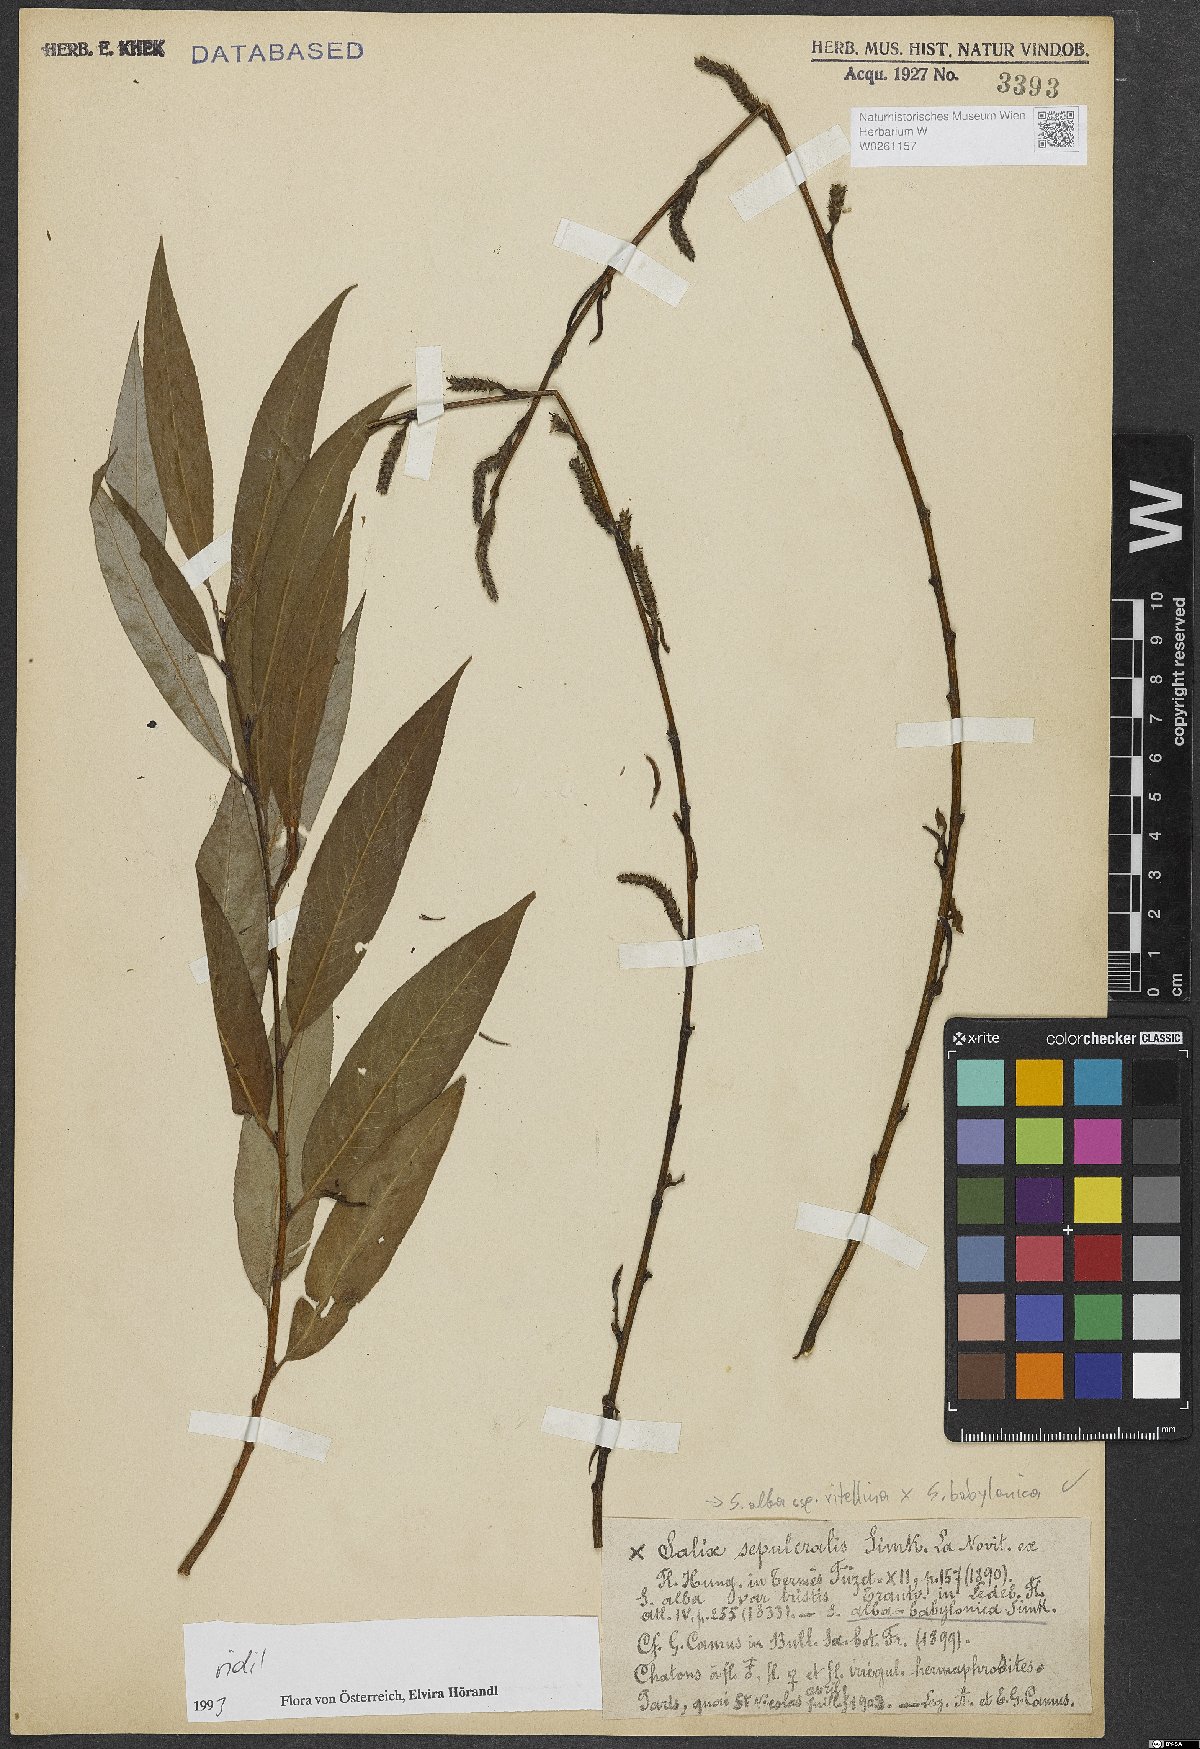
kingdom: Plantae
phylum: Tracheophyta
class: Magnoliopsida
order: Malpighiales
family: Salicaceae
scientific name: Salicaceae
